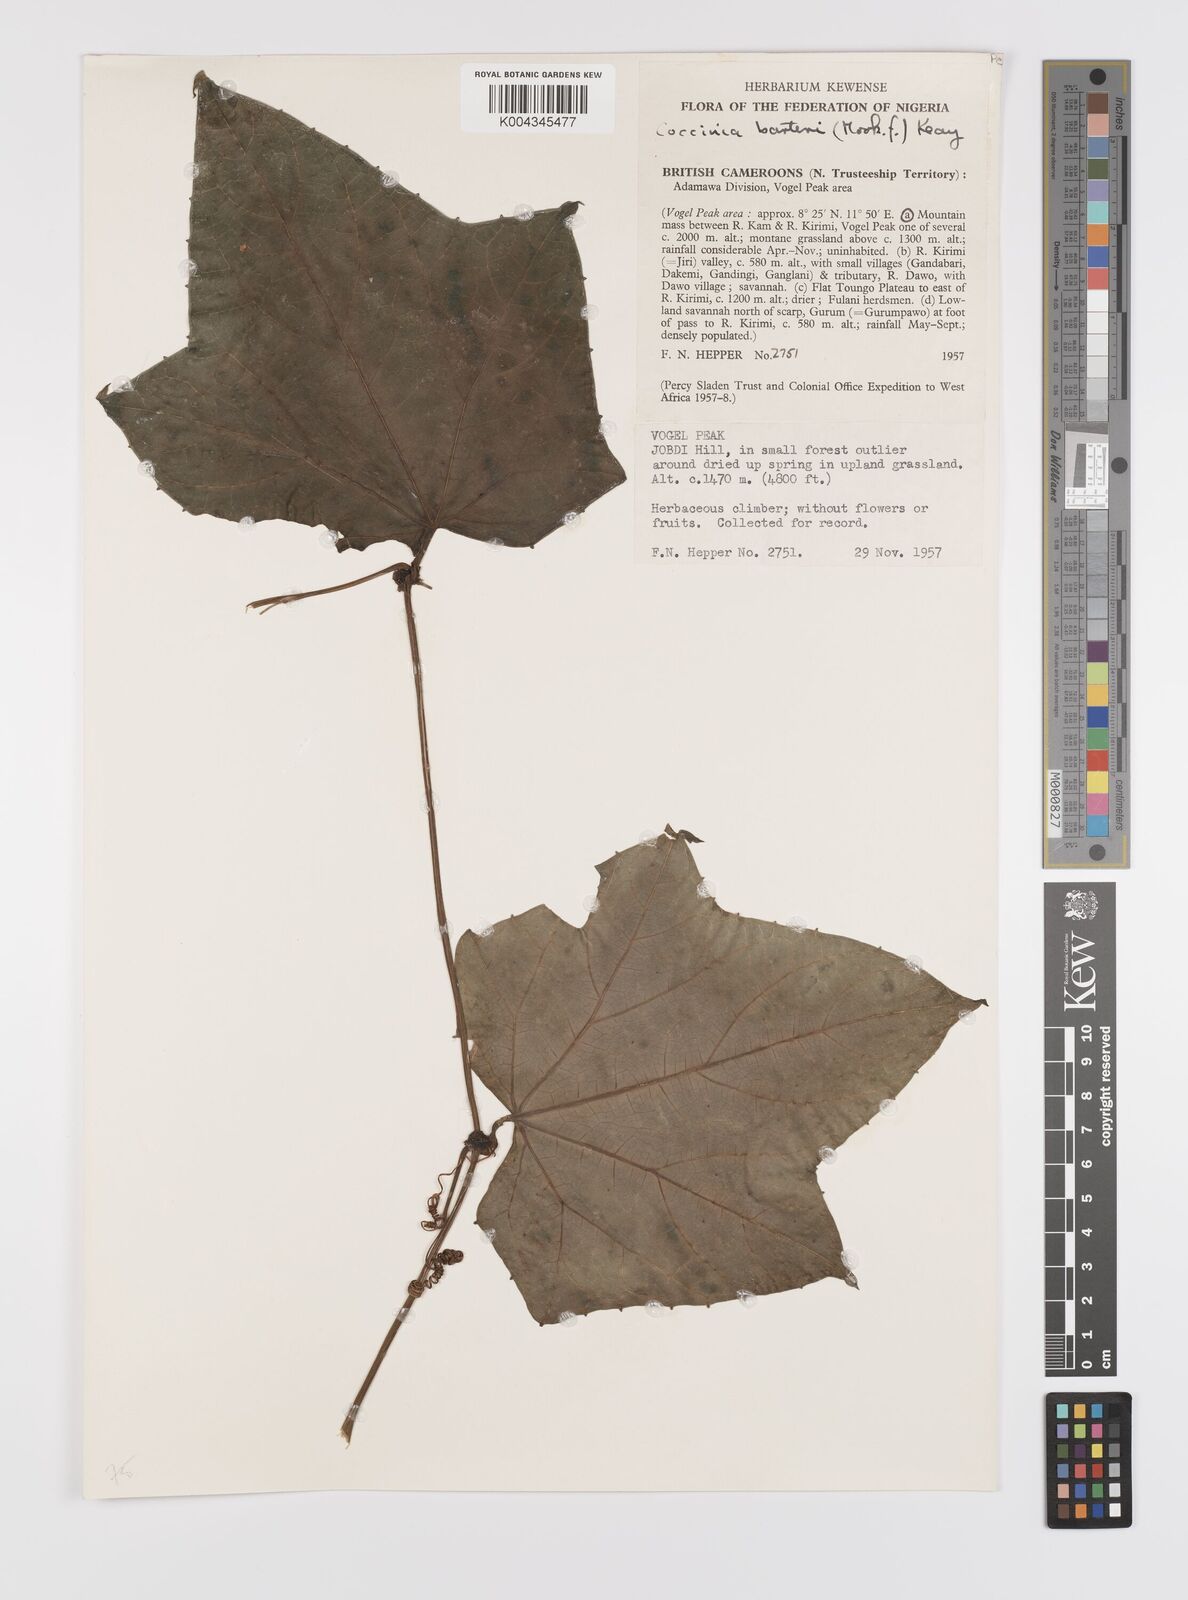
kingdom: Plantae
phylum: Tracheophyta
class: Magnoliopsida
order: Cucurbitales
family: Cucurbitaceae
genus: Coccinia
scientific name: Coccinia barteri
